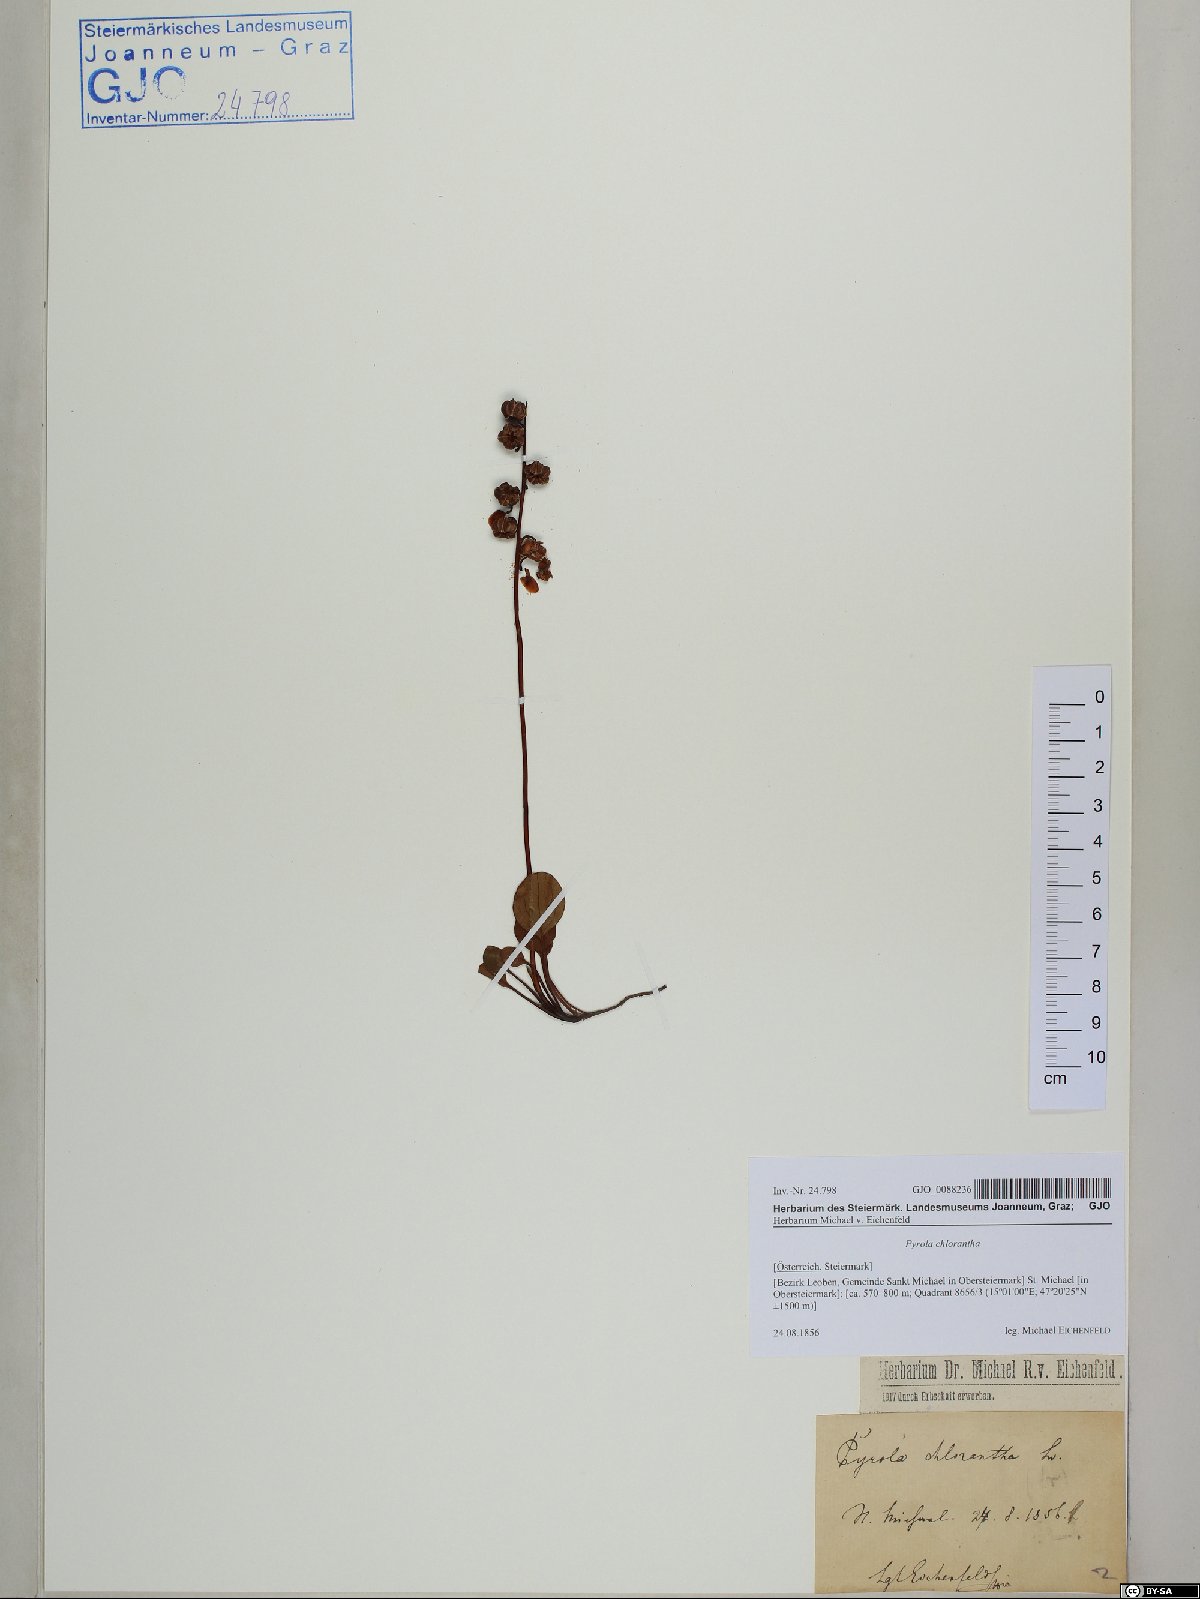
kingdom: Plantae
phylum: Tracheophyta
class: Magnoliopsida
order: Ericales
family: Ericaceae
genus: Pyrola
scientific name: Pyrola chlorantha
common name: Green wintergreen
